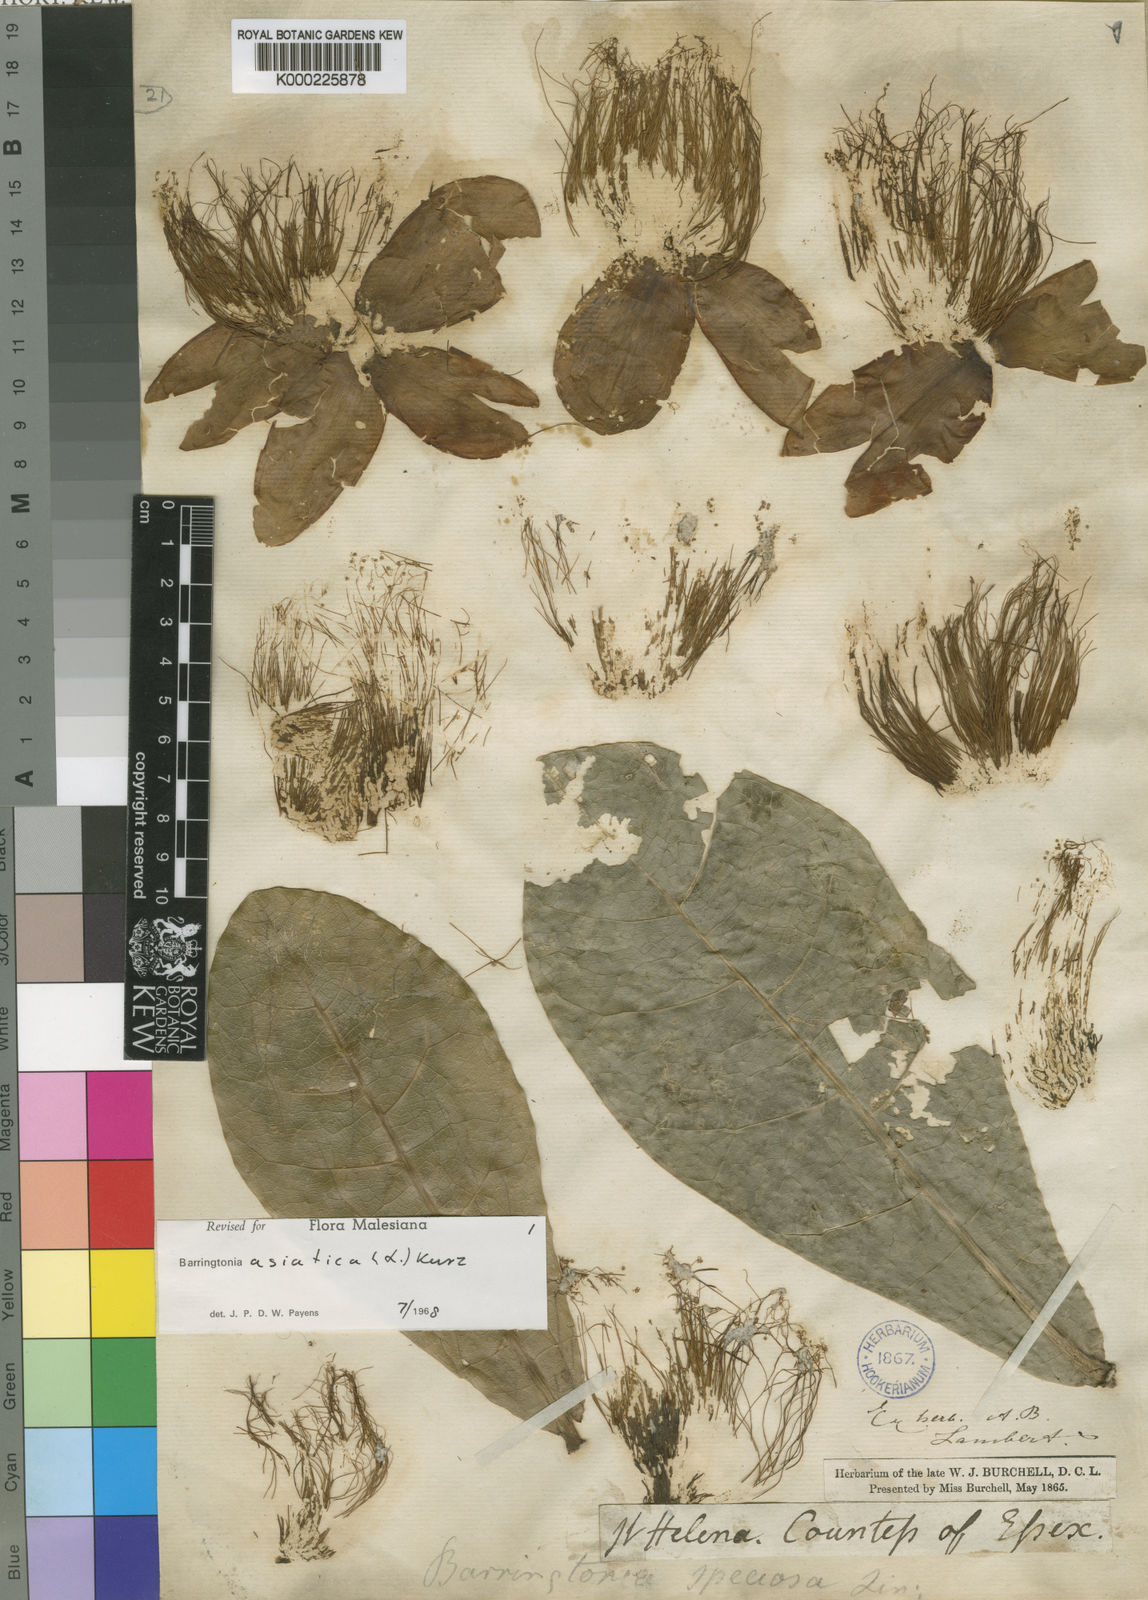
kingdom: Plantae
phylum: Tracheophyta
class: Magnoliopsida
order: Ericales
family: Lecythidaceae
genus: Barringtonia
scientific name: Barringtonia asiatica
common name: Mango-pine
